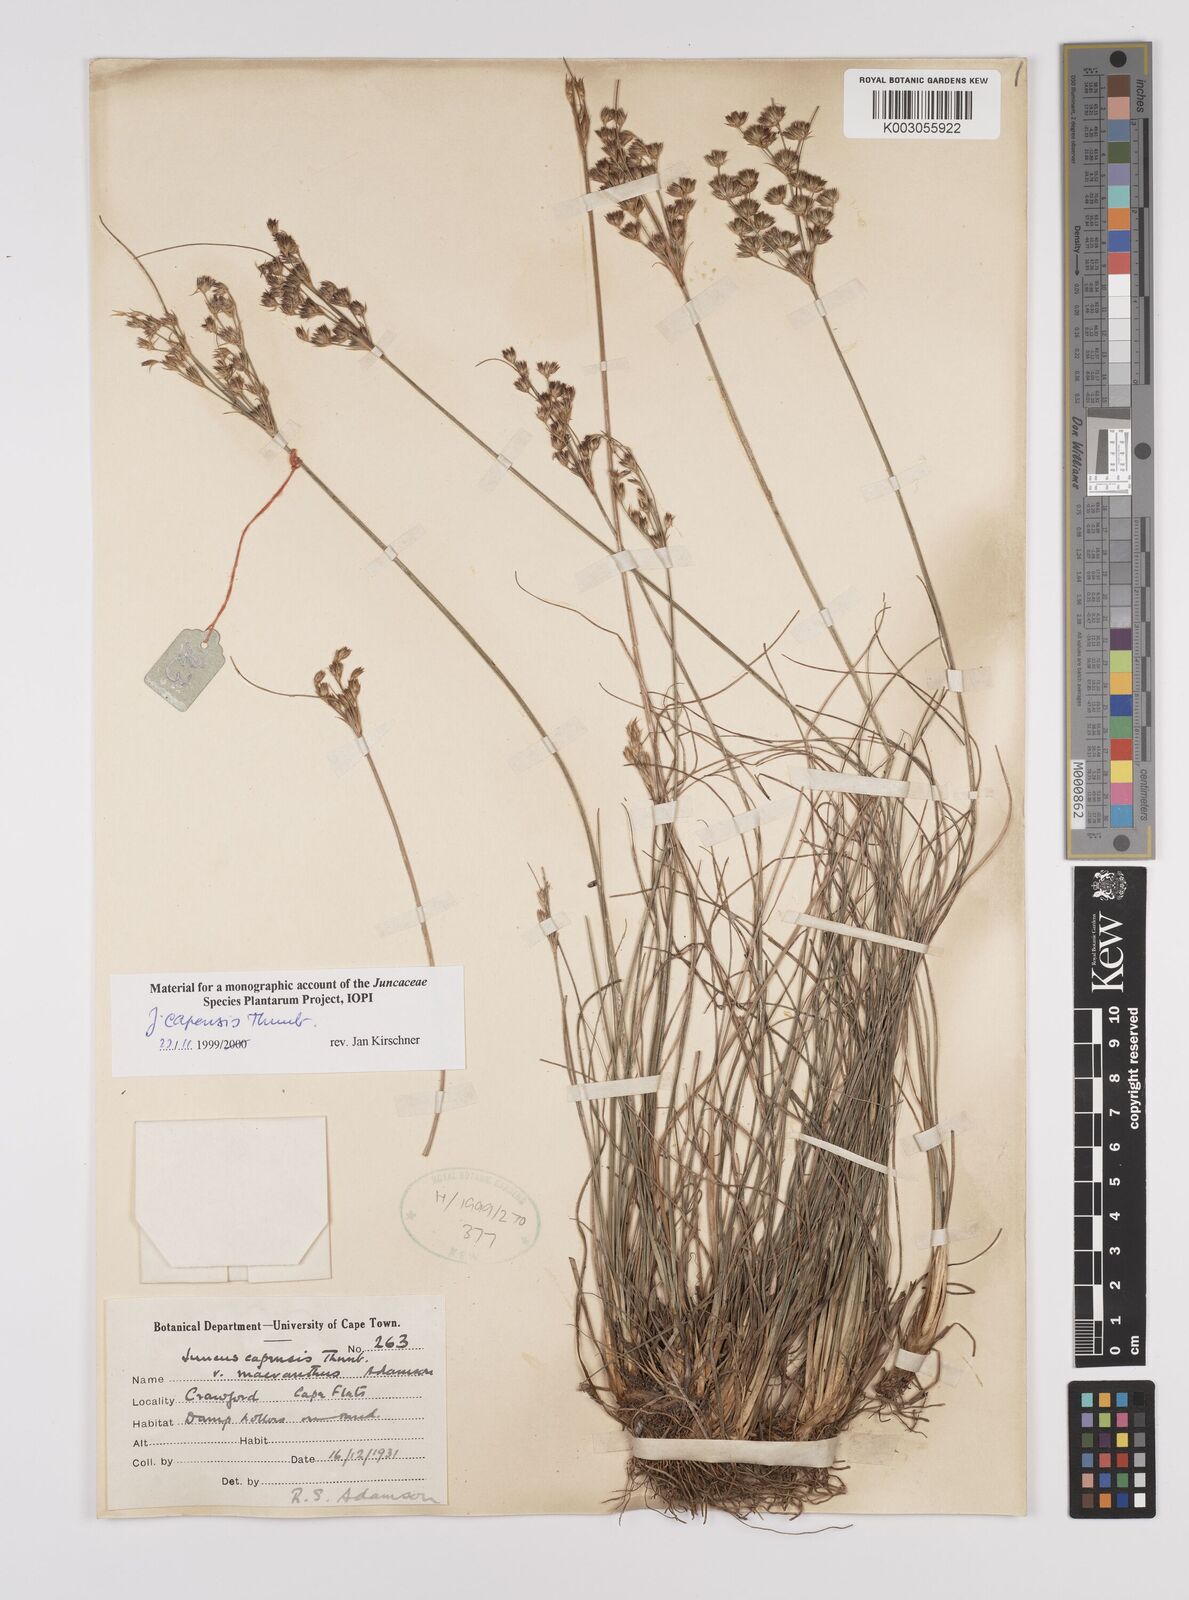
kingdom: Plantae
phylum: Tracheophyta
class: Liliopsida
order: Poales
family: Juncaceae
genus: Juncus
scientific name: Juncus capensis
